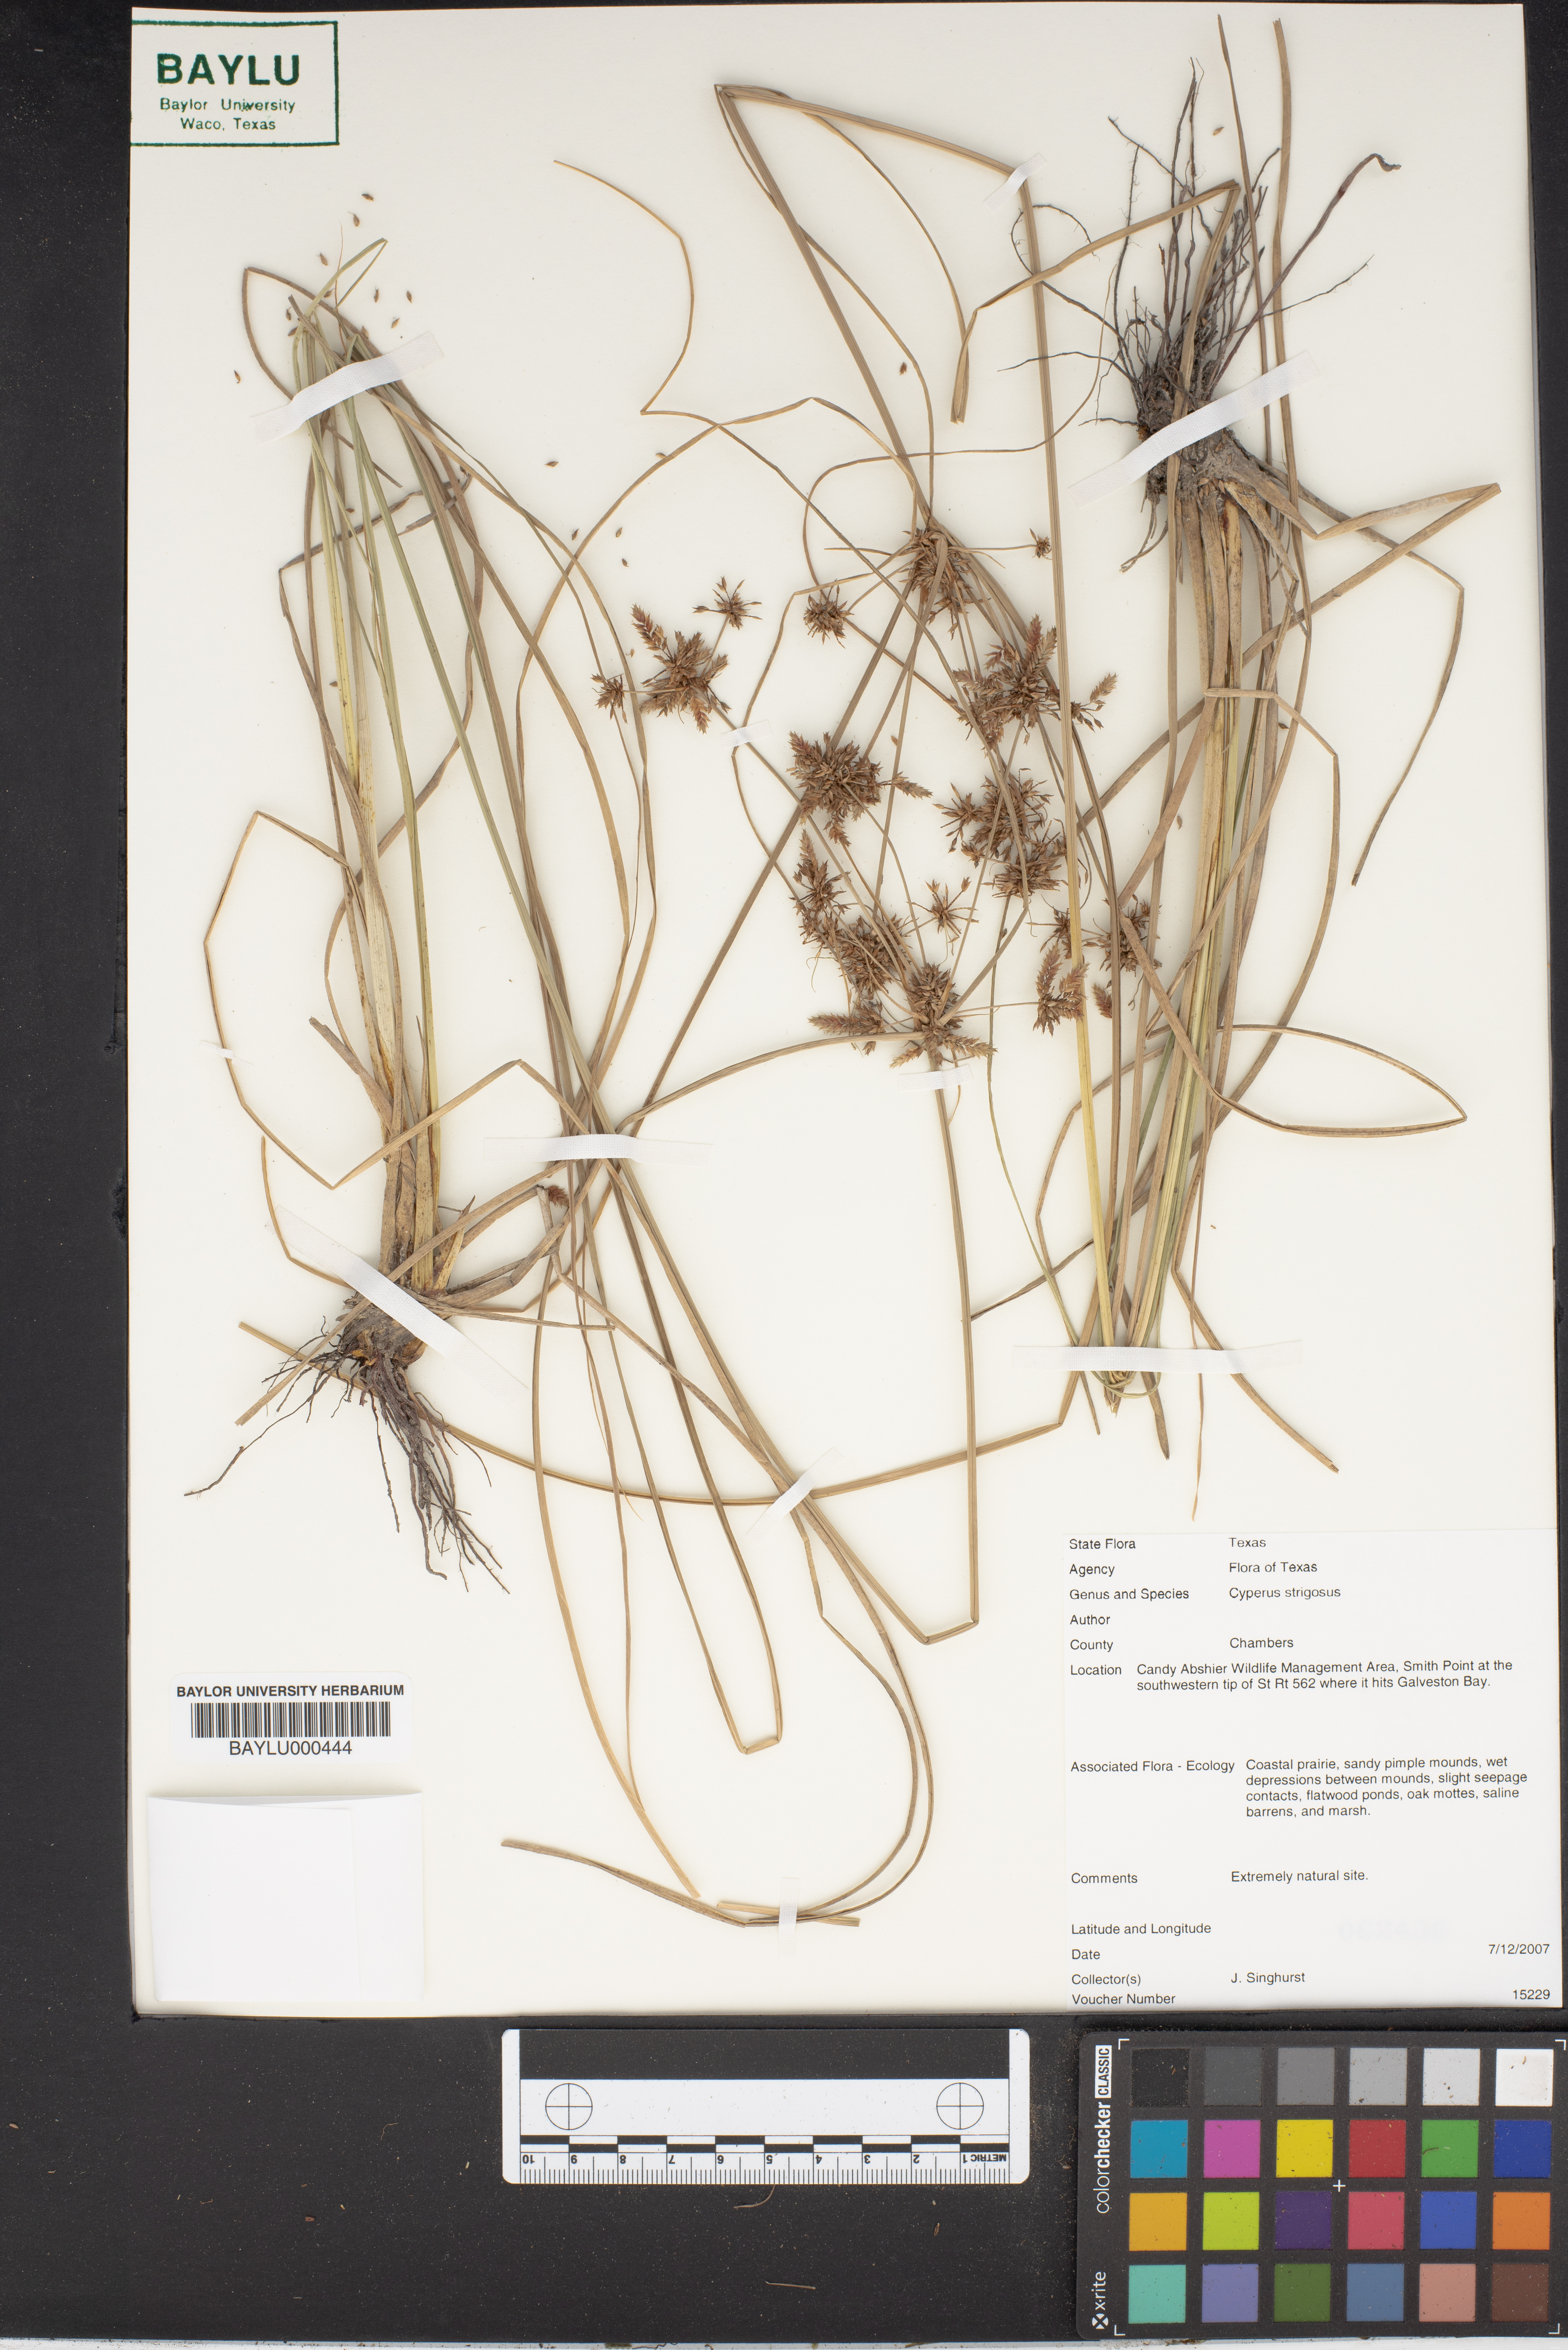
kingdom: Plantae
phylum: Tracheophyta
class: Liliopsida
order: Poales
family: Cyperaceae
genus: Cyperus
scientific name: Cyperus strigosus
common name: False nutsedge
